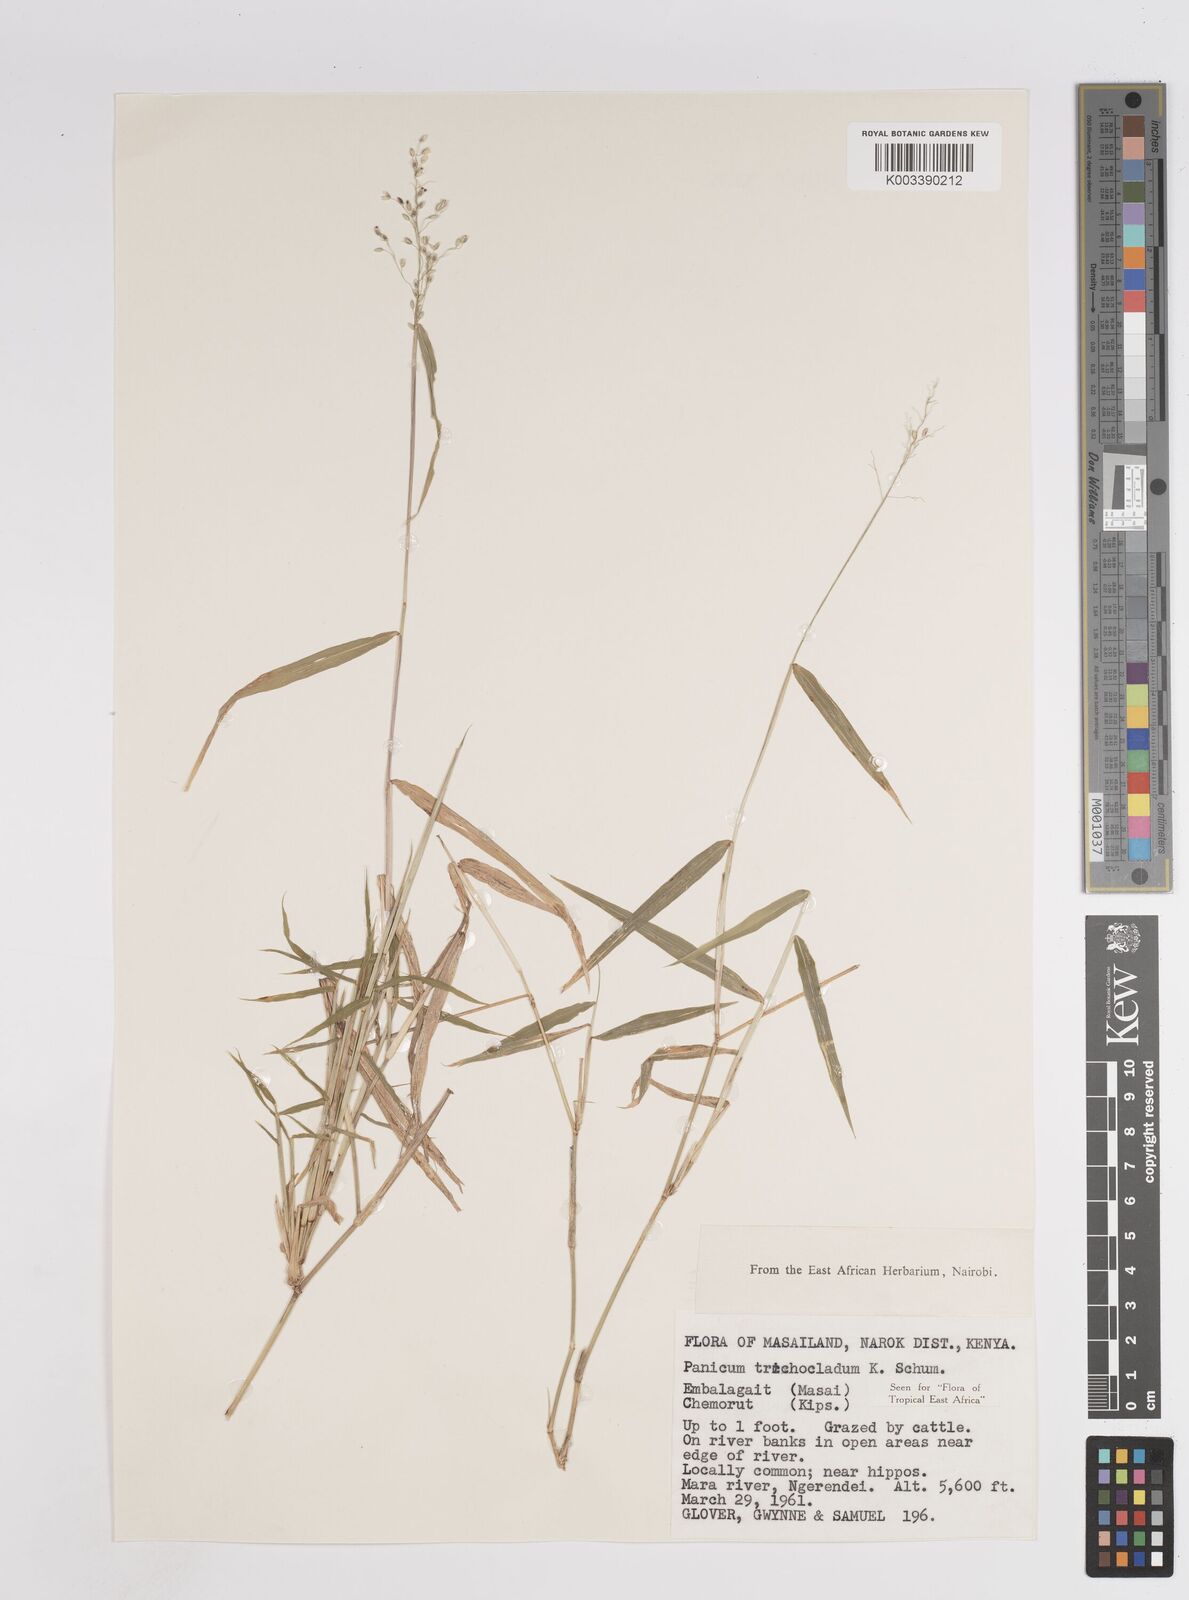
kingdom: Plantae
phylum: Tracheophyta
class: Liliopsida
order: Poales
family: Poaceae
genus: Panicum
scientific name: Panicum trichocladum
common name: Donkey grass
